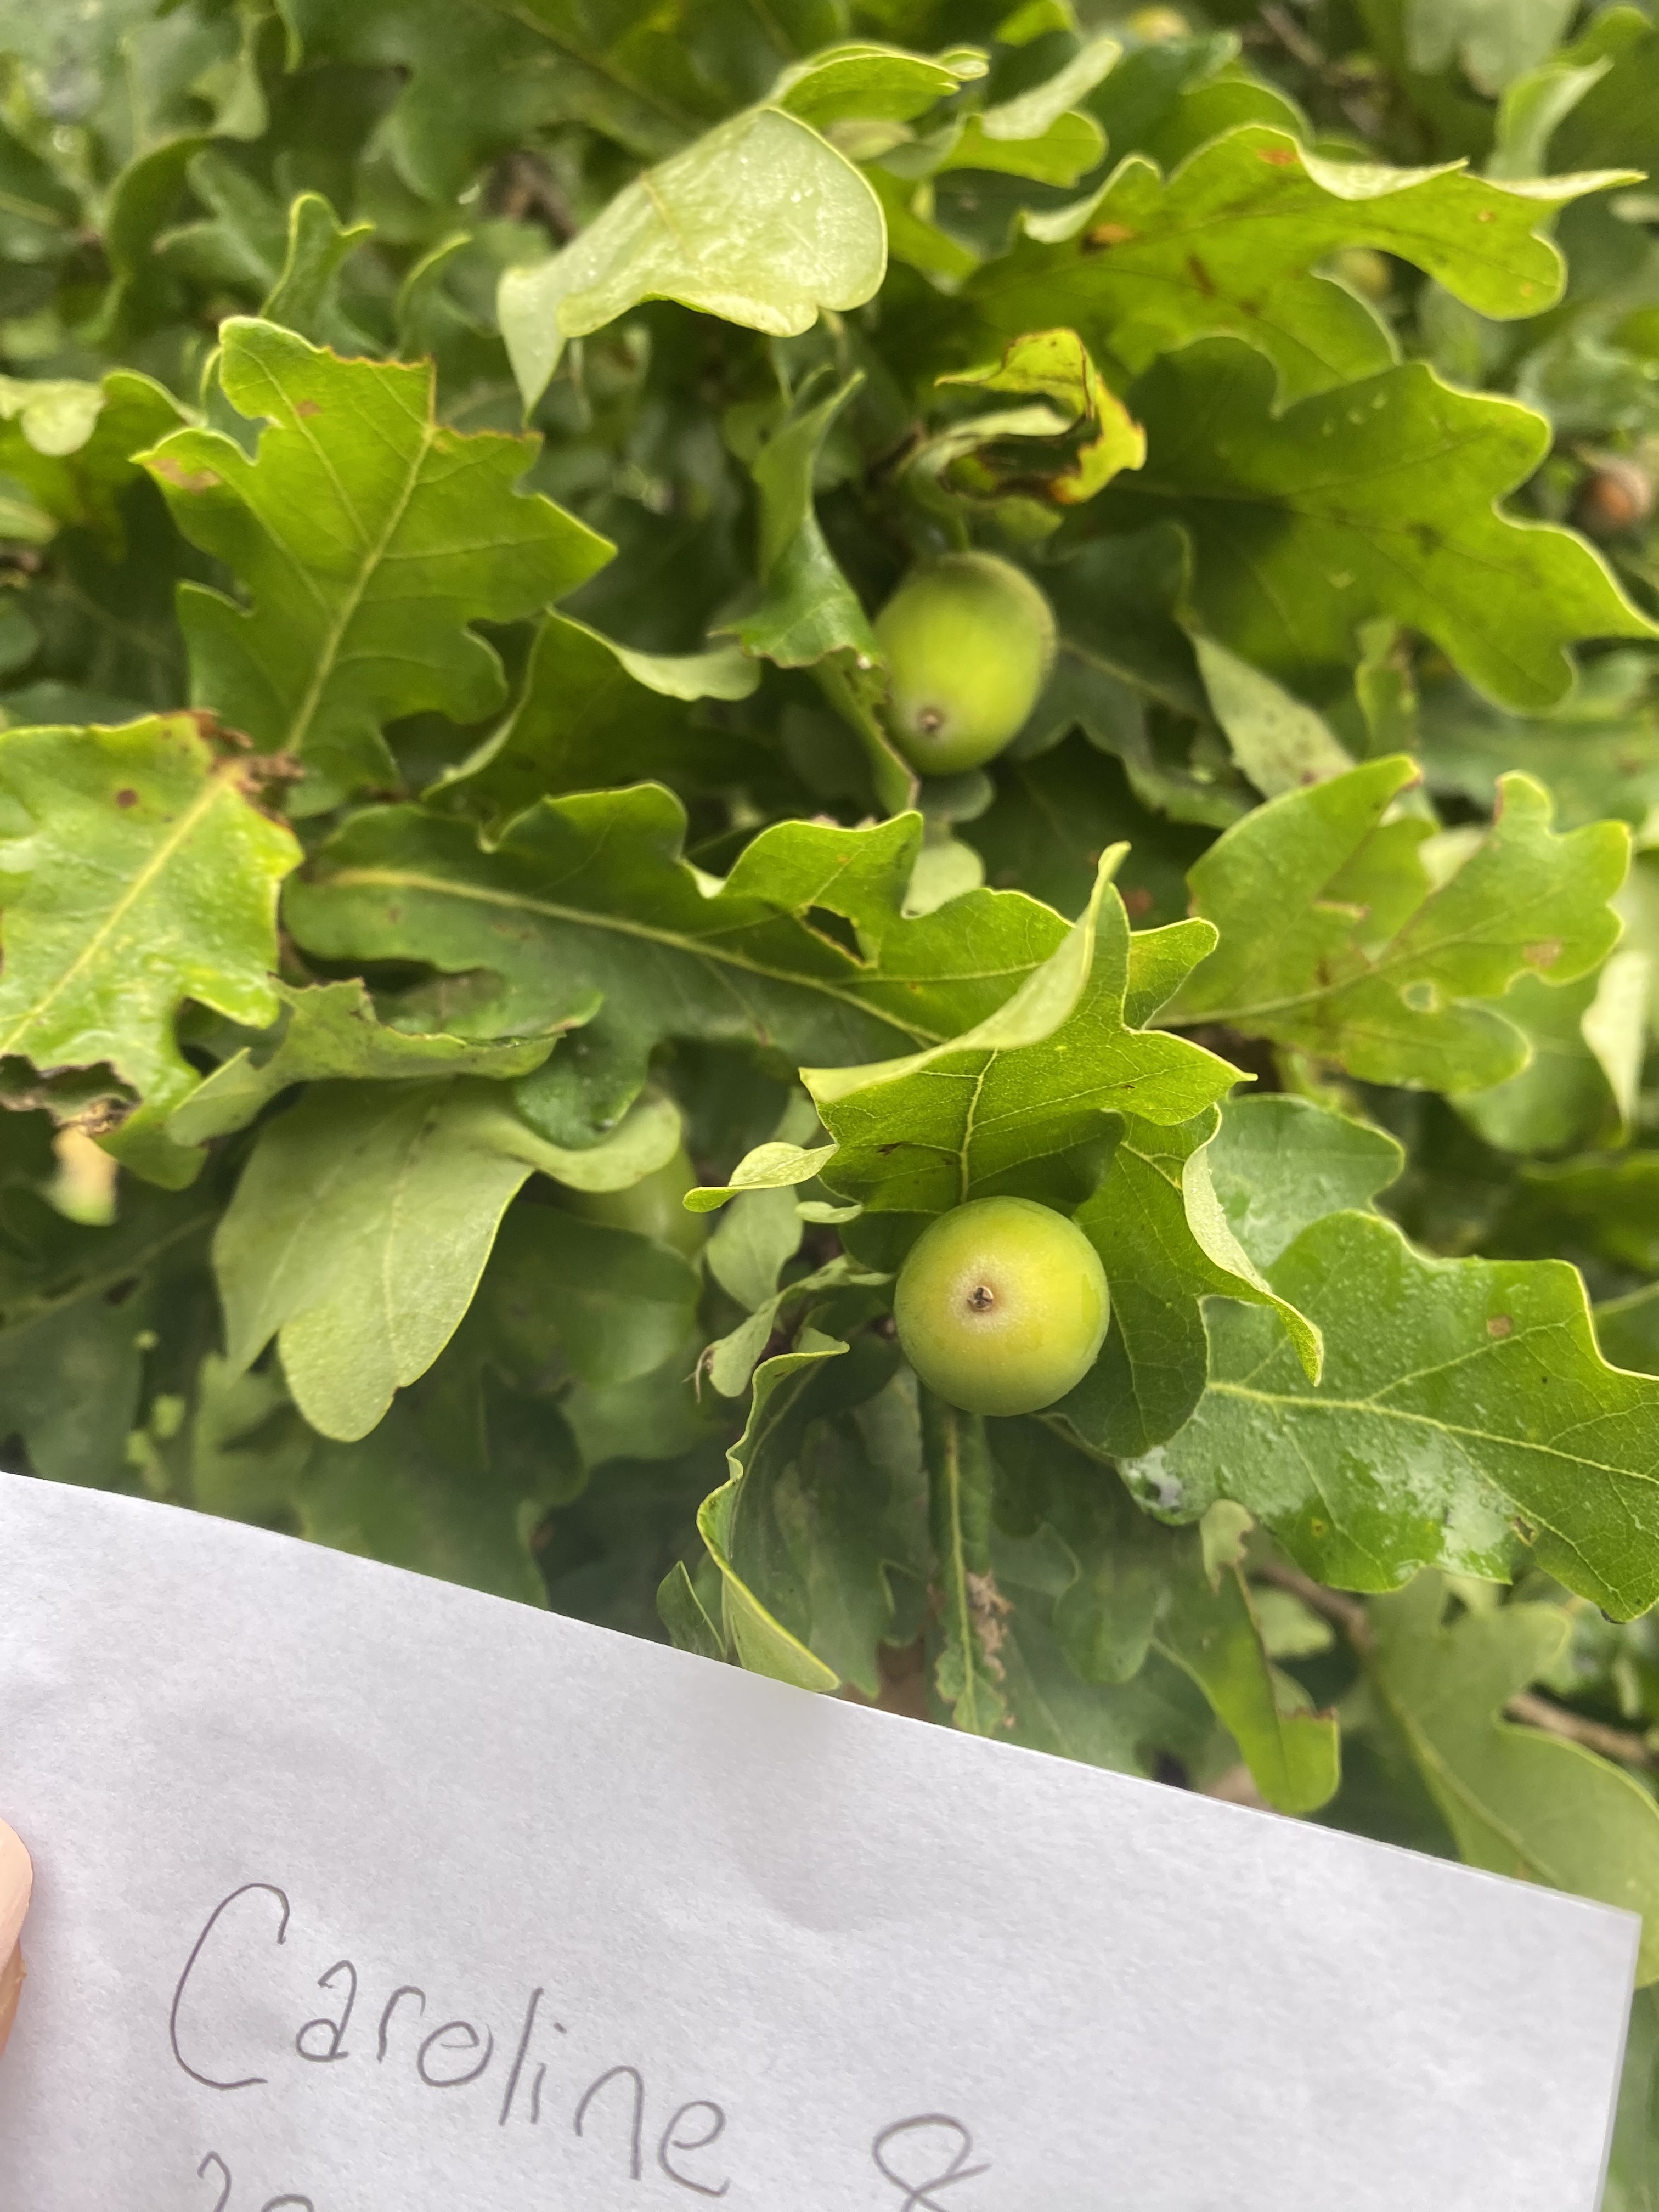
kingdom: Plantae
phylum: Tracheophyta
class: Magnoliopsida
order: Fagales
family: Fagaceae
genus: Quercus
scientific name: Quercus
